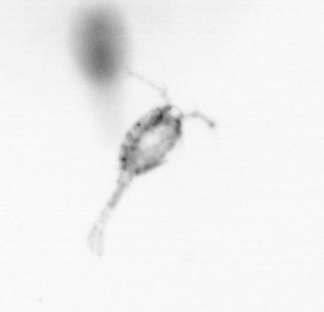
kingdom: Animalia
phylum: Arthropoda
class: Copepoda
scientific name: Copepoda
